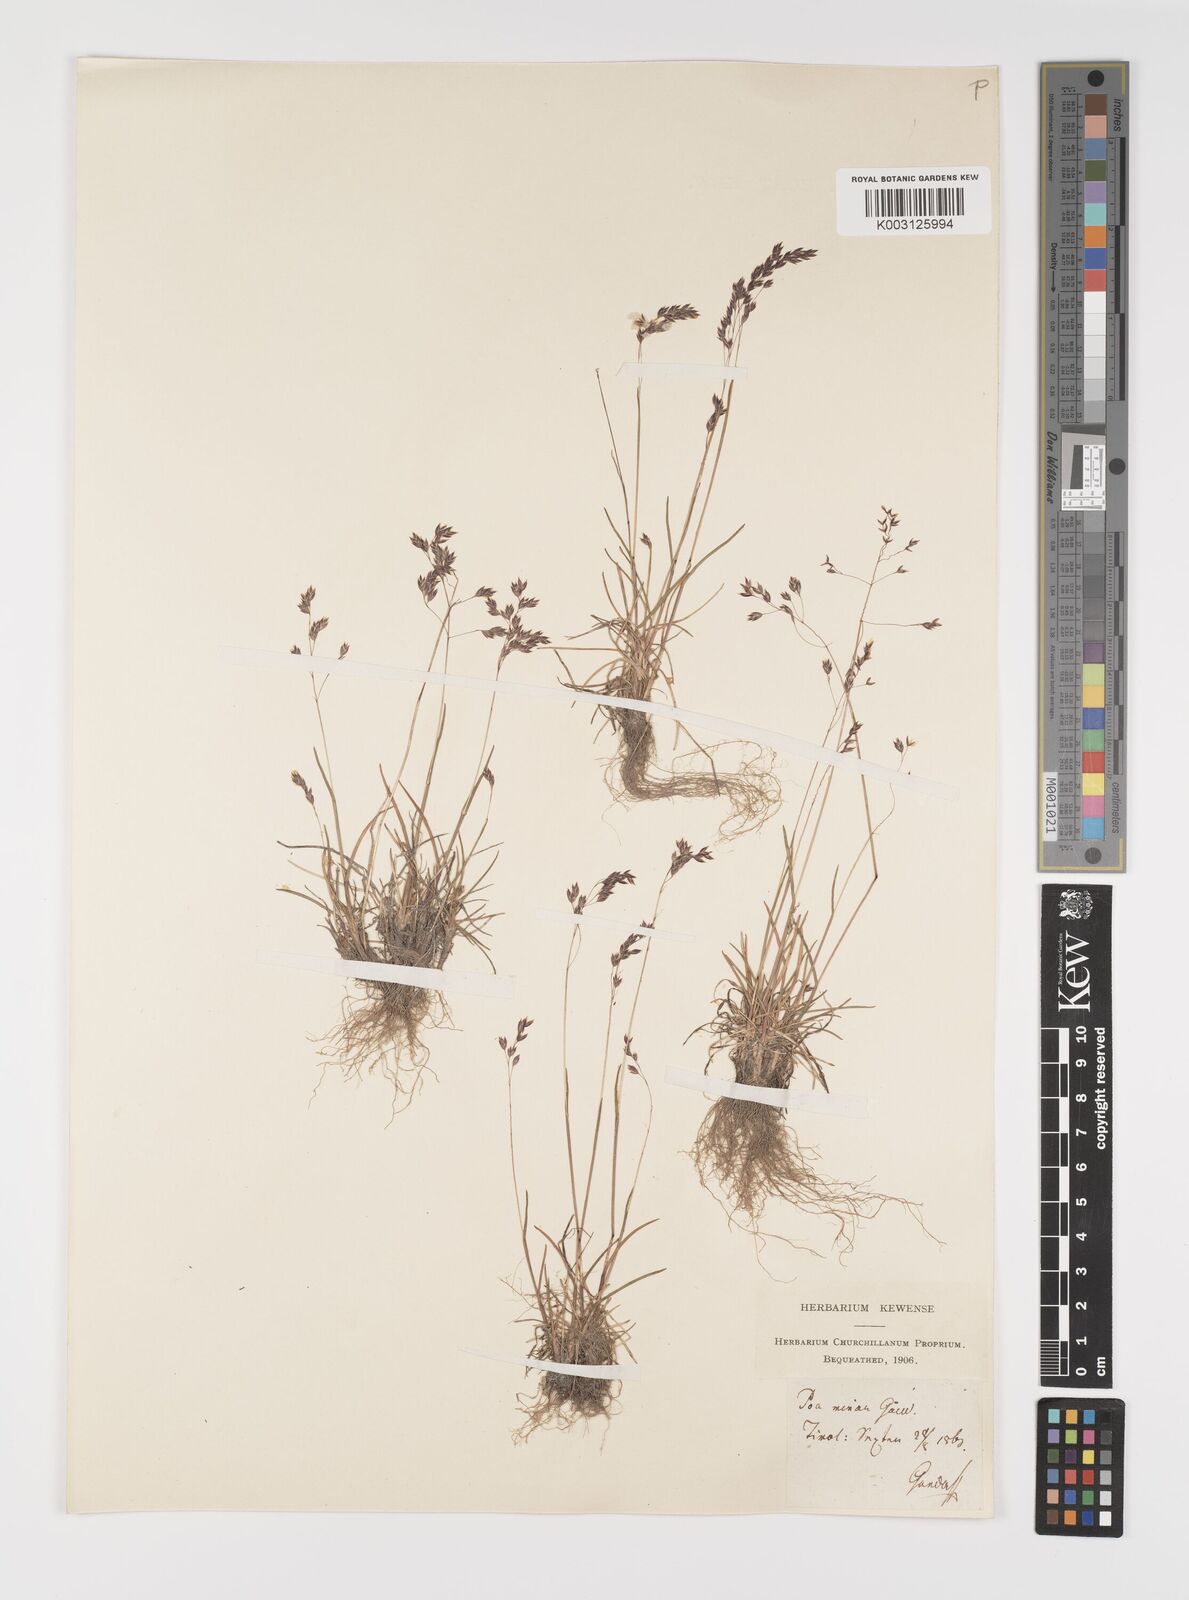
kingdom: Plantae
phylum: Tracheophyta
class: Liliopsida
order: Poales
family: Poaceae
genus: Poa
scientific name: Poa minor
